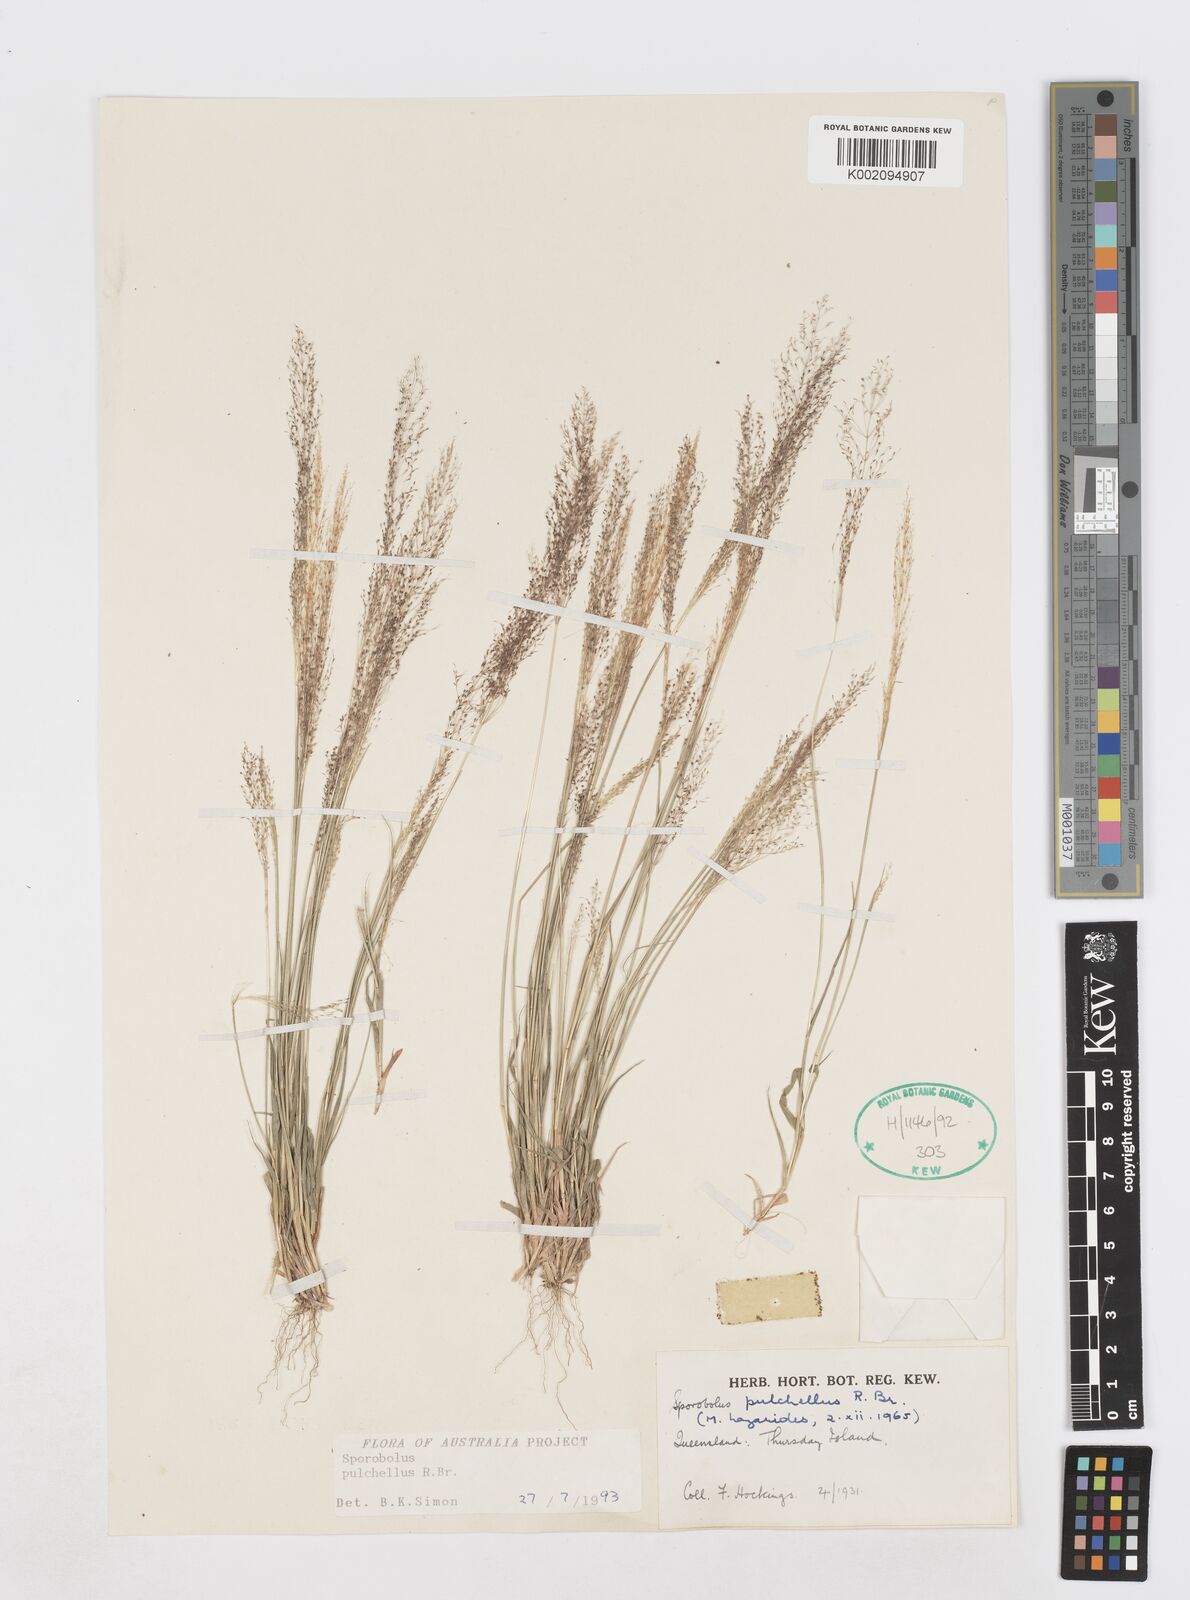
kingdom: Plantae
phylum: Tracheophyta
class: Liliopsida
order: Poales
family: Poaceae
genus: Sporobolus
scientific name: Sporobolus pulchellus
